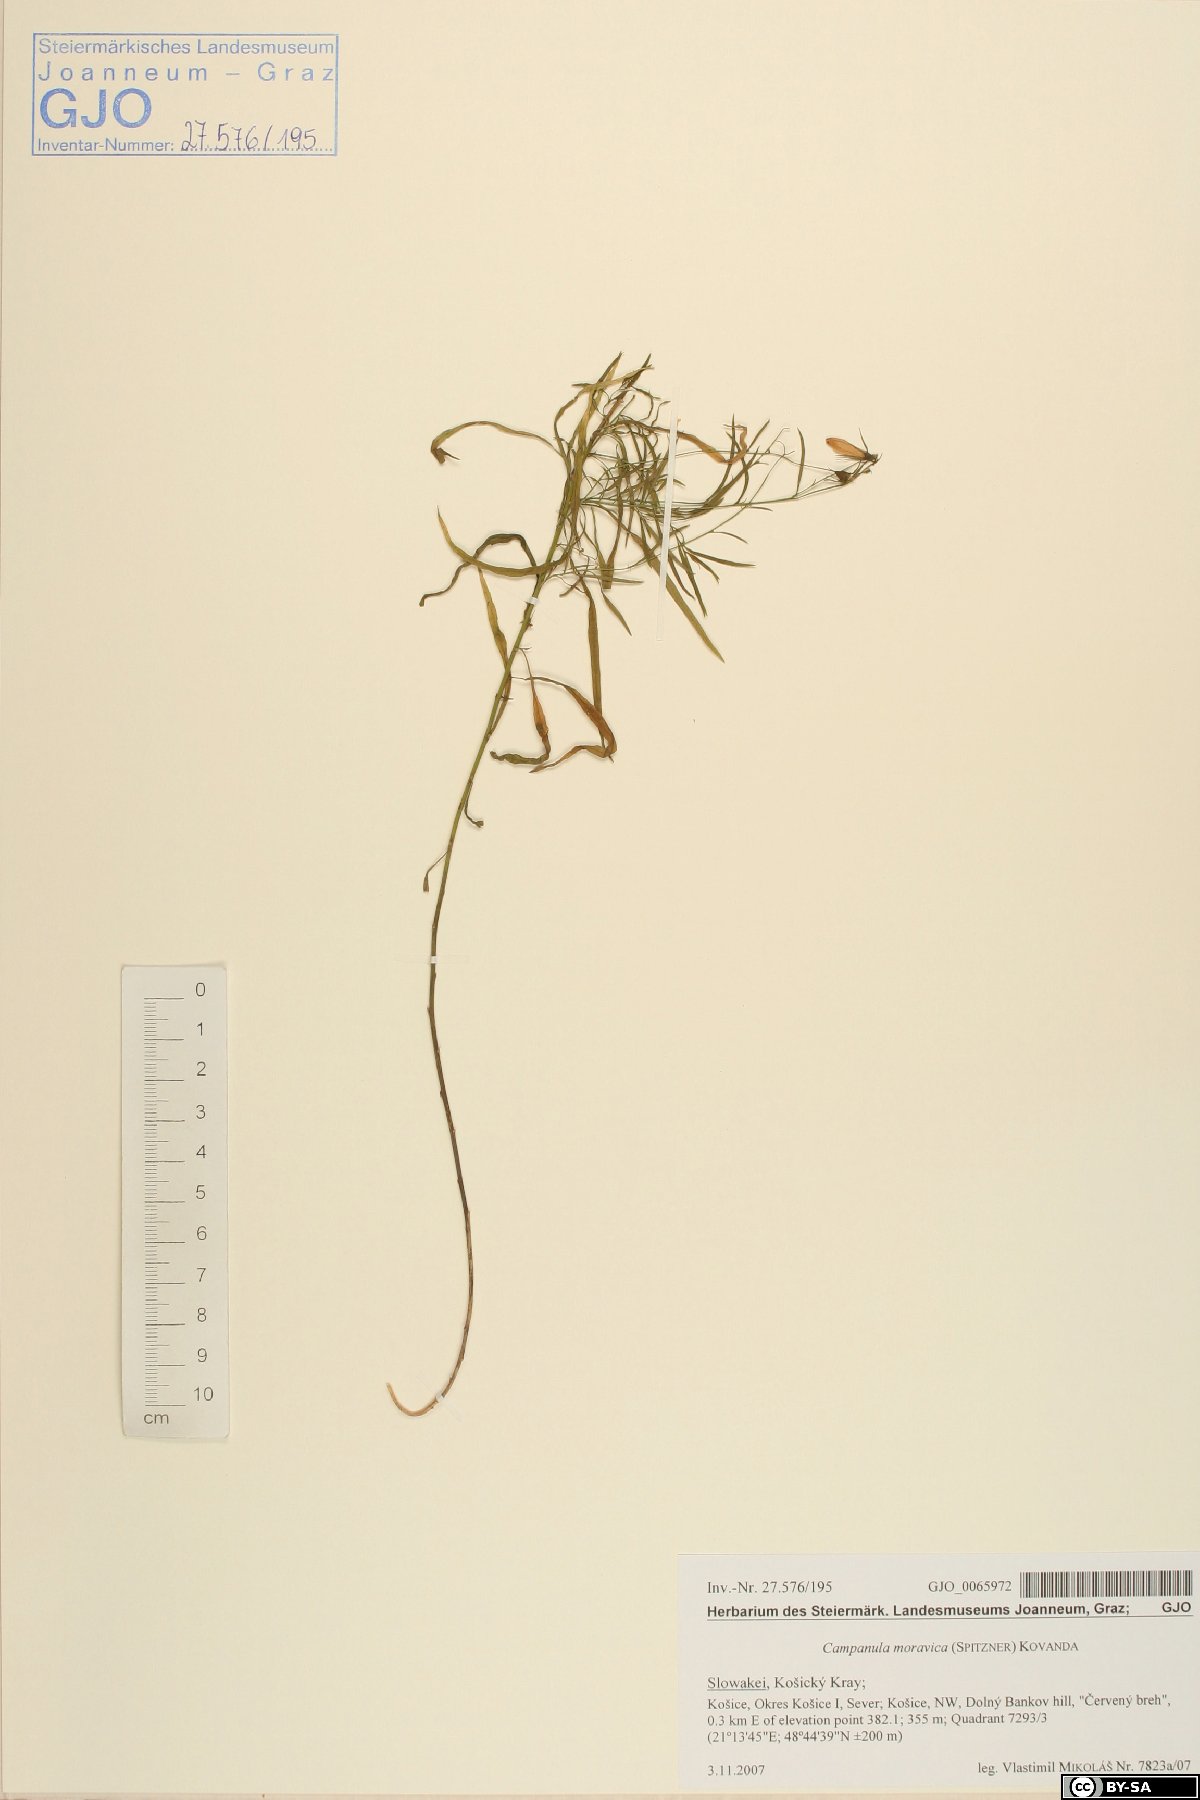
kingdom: Plantae
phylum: Tracheophyta
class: Magnoliopsida
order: Asterales
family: Campanulaceae
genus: Campanula
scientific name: Campanula moravica
